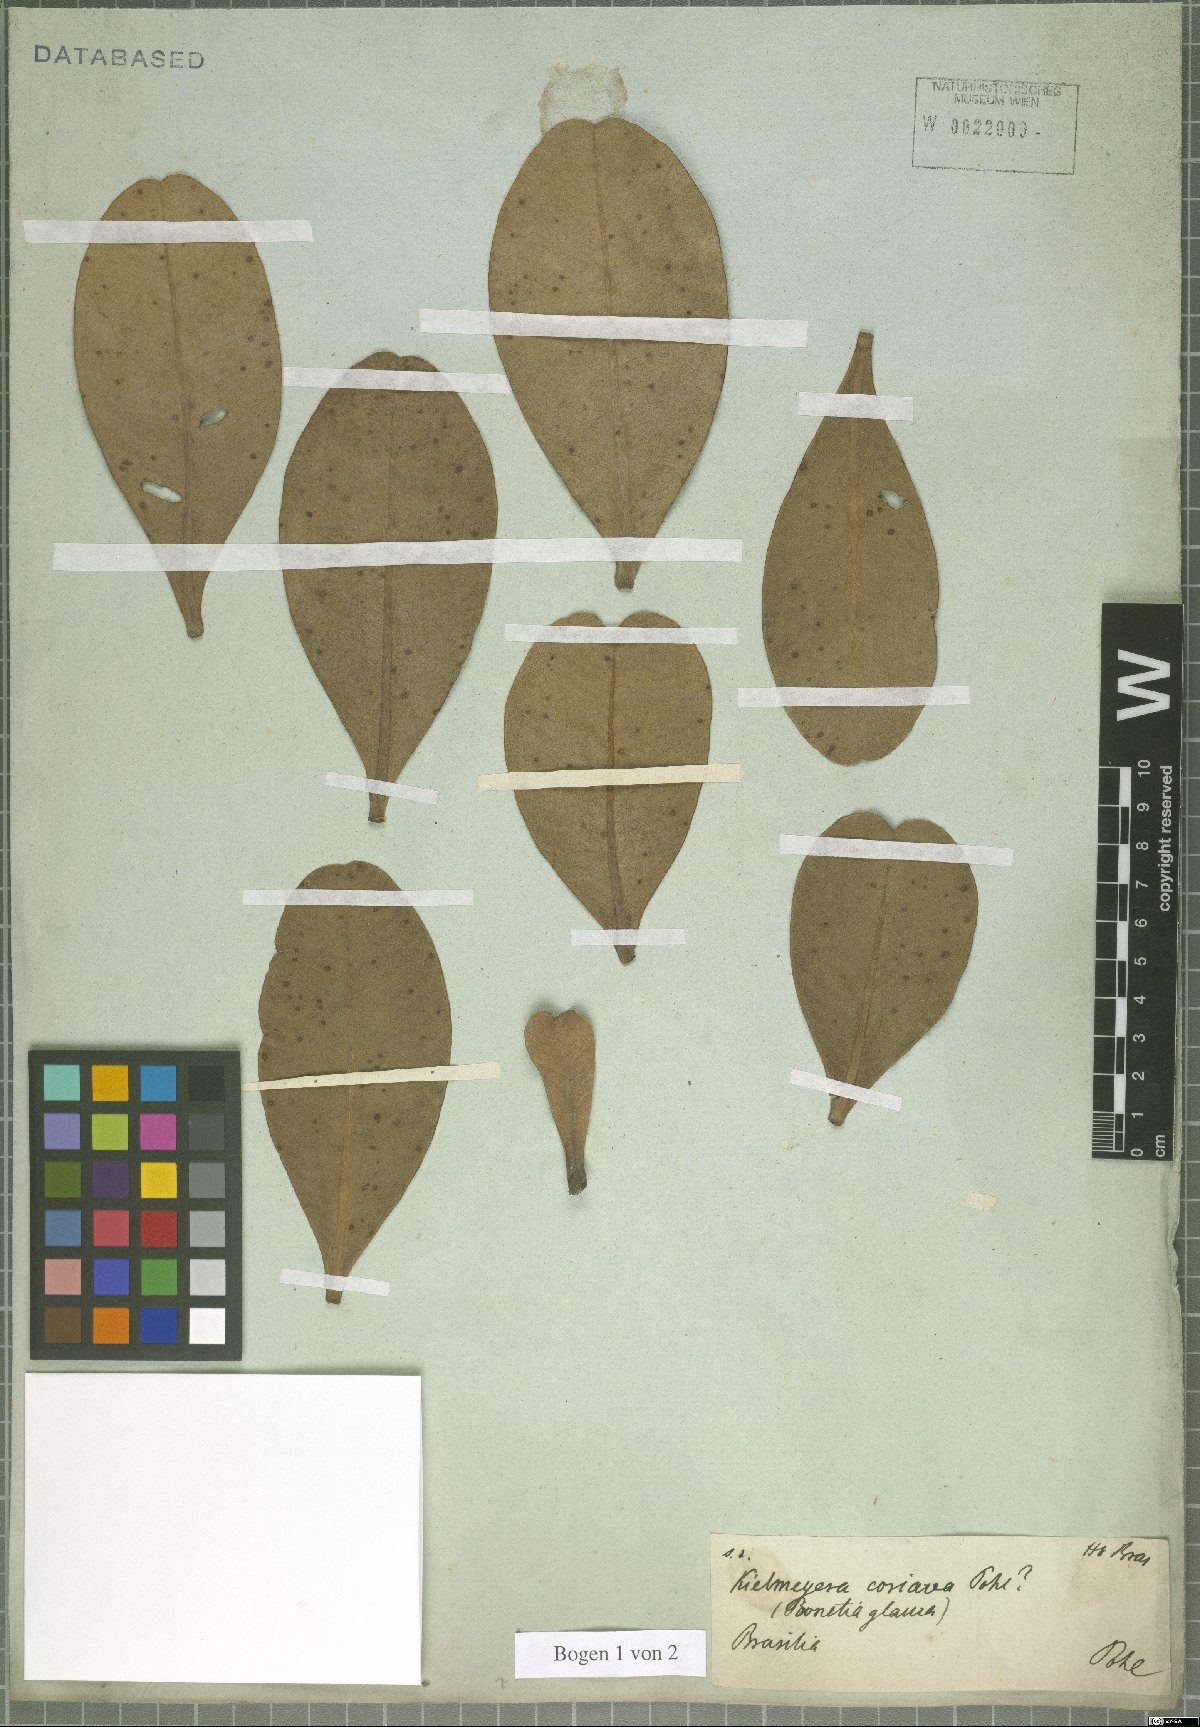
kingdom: Plantae
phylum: Tracheophyta
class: Magnoliopsida
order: Malpighiales
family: Calophyllaceae
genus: Kielmeyera
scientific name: Kielmeyera coriacea
